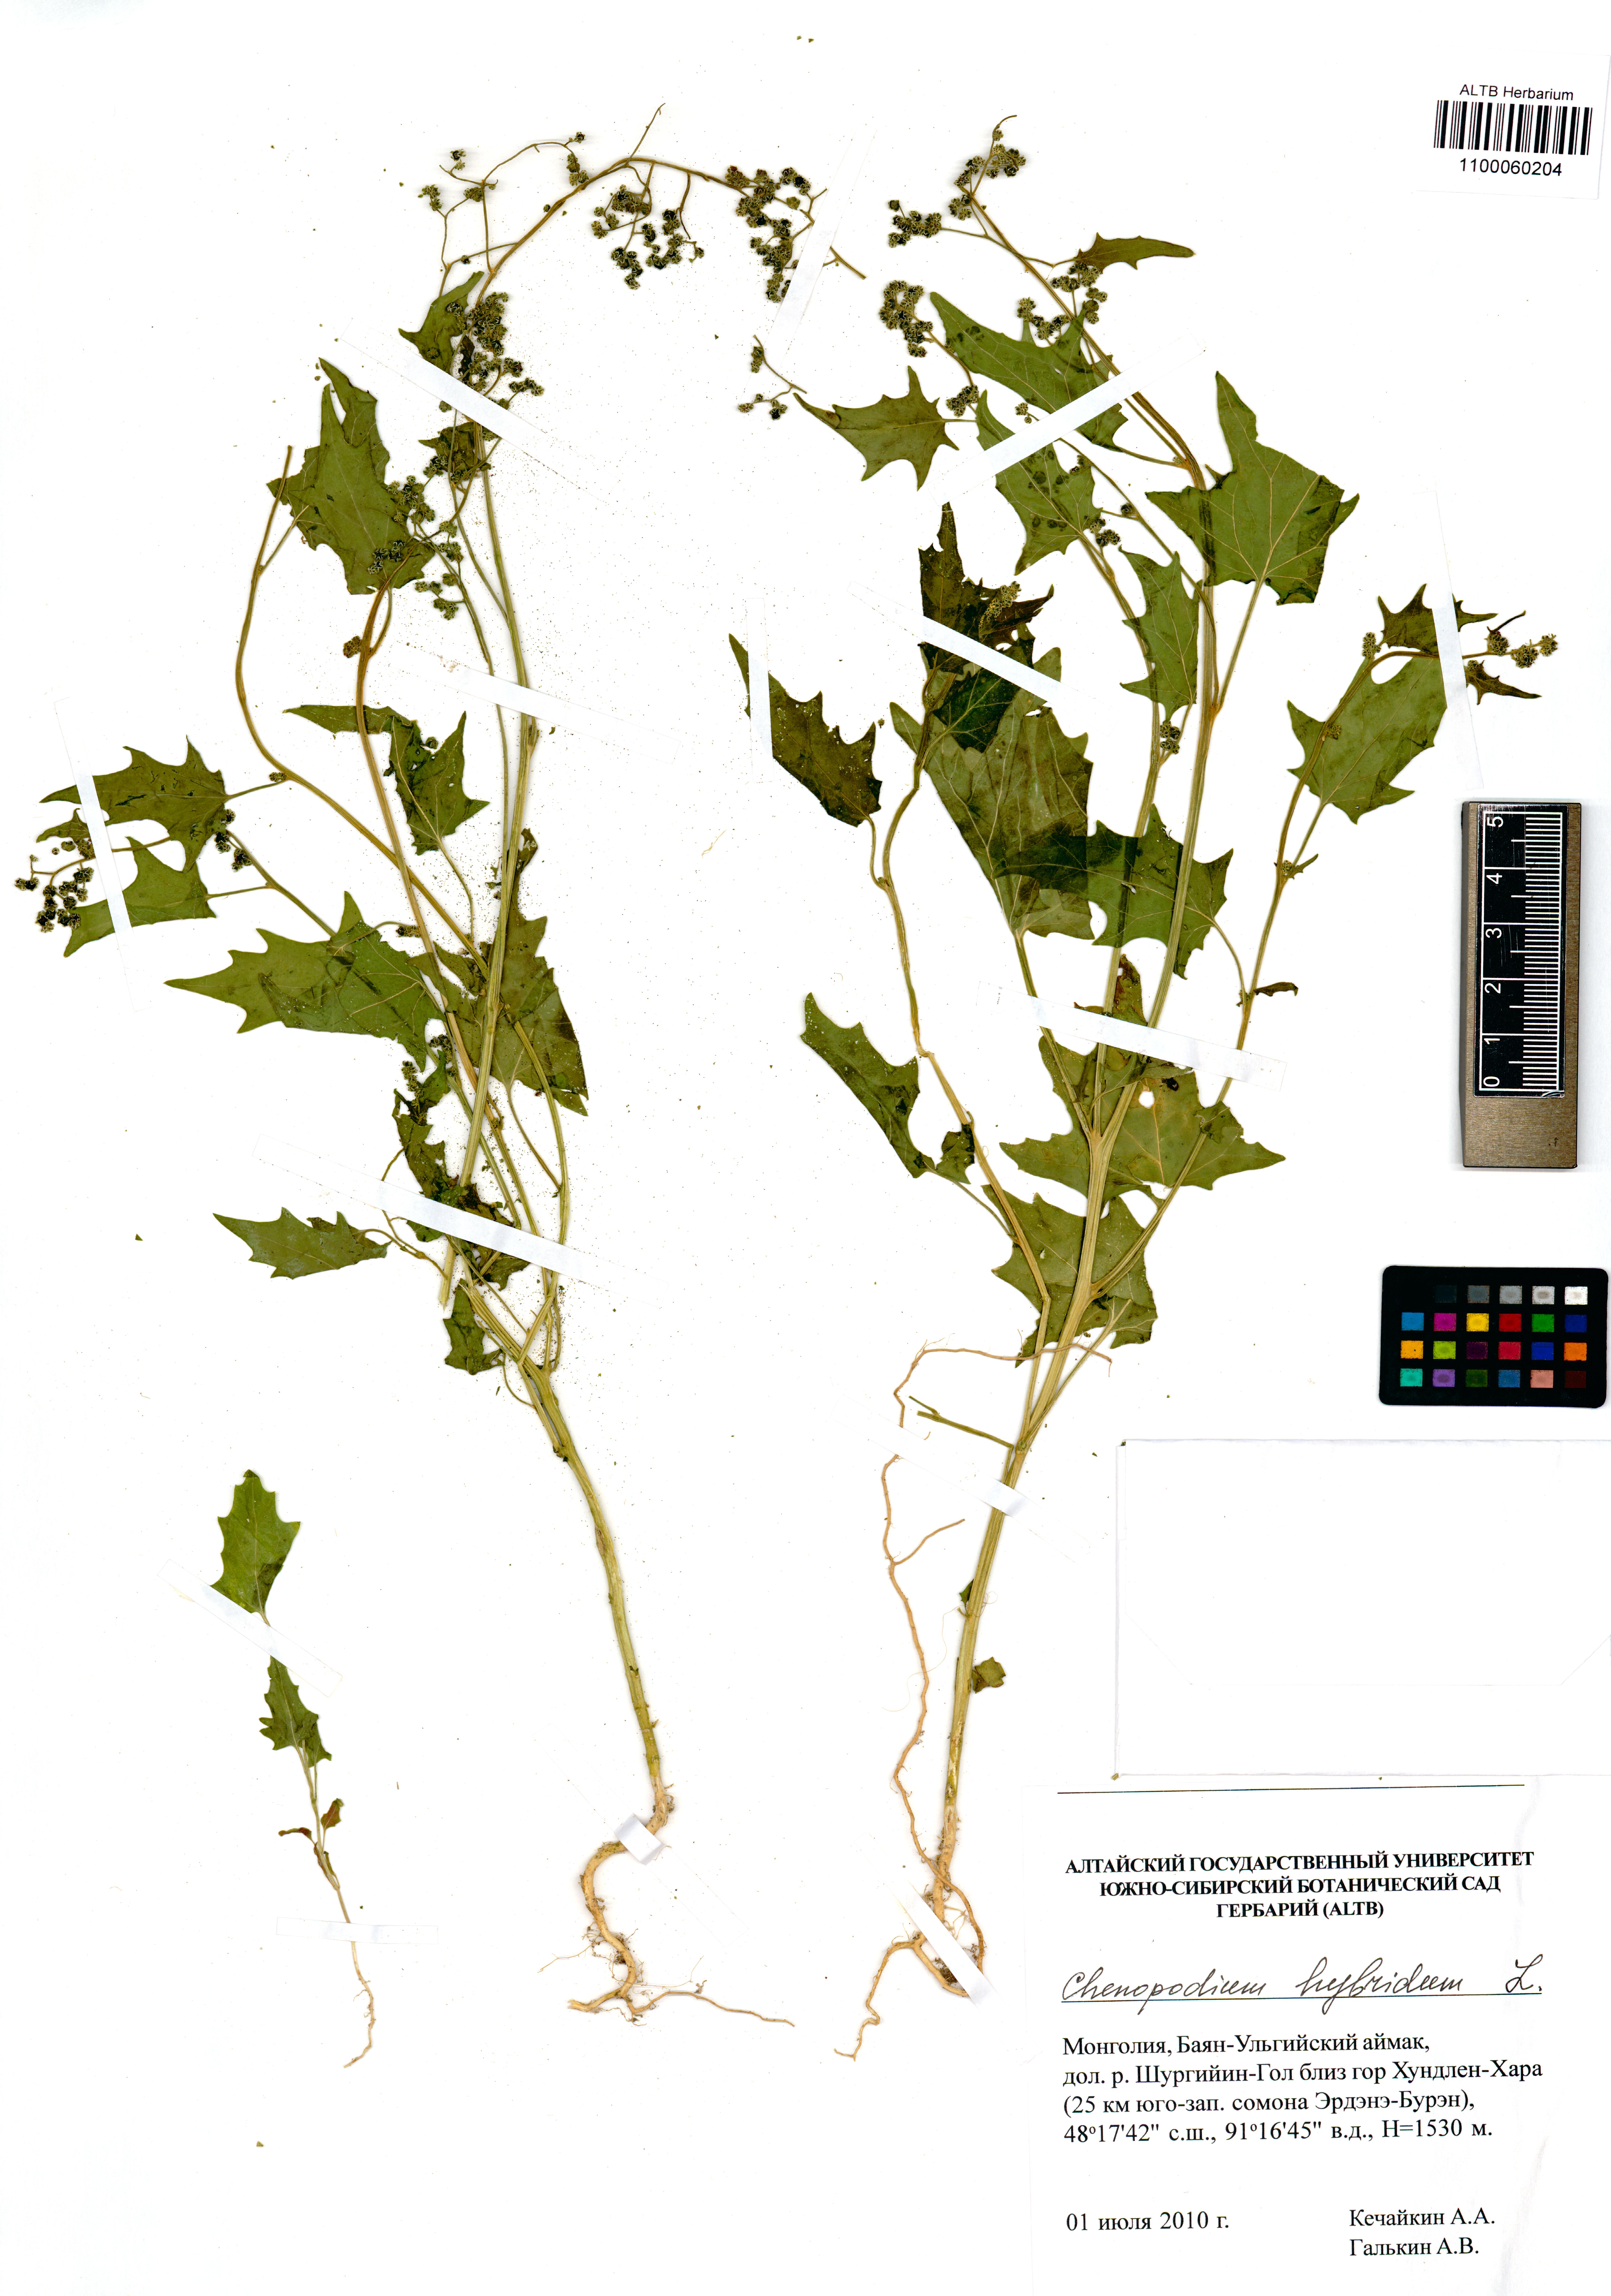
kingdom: Plantae
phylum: Tracheophyta
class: Magnoliopsida
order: Caryophyllales
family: Amaranthaceae
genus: Chenopodiastrum
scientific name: Chenopodiastrum hybridum
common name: Mapleleaf goosefoot
